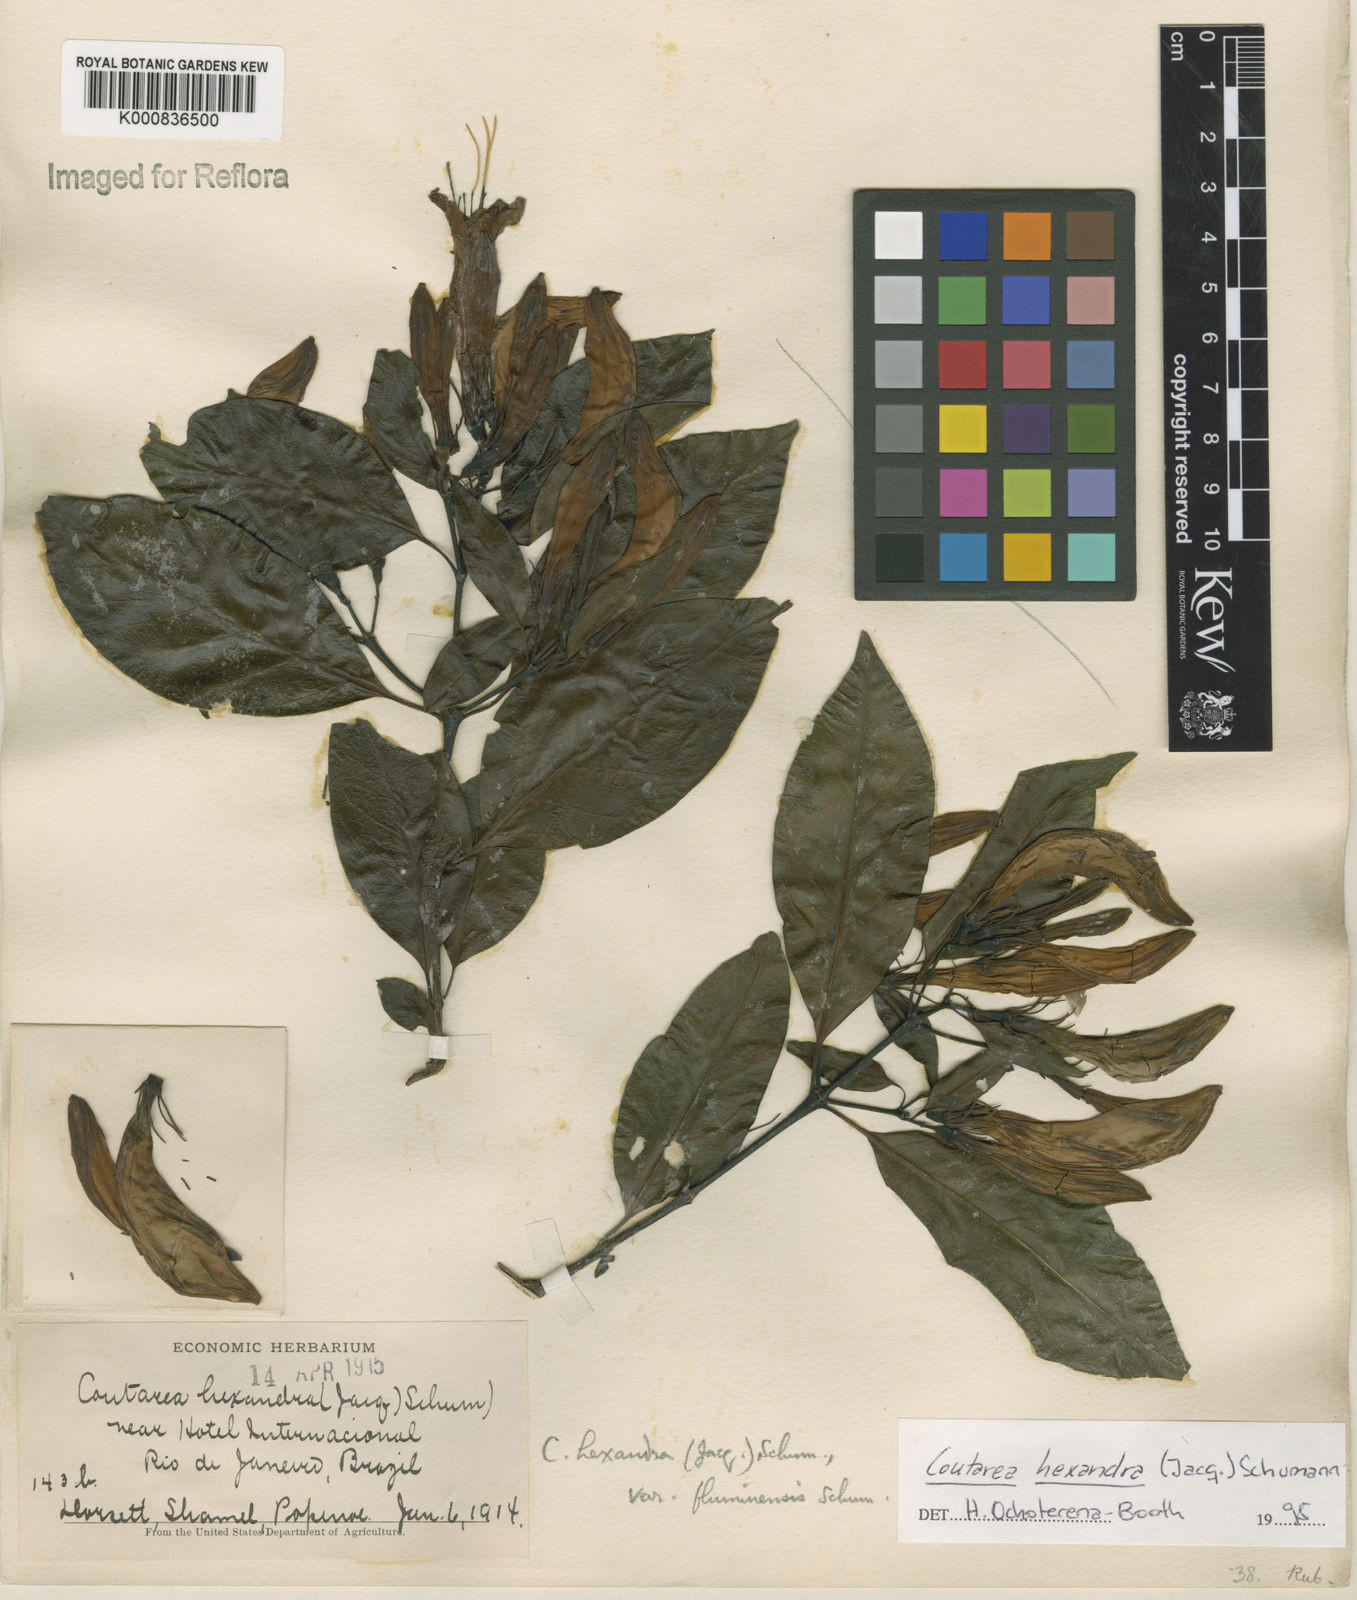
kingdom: Plantae
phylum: Tracheophyta
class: Magnoliopsida
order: Gentianales
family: Rubiaceae
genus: Coutarea
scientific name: Coutarea hexandra
